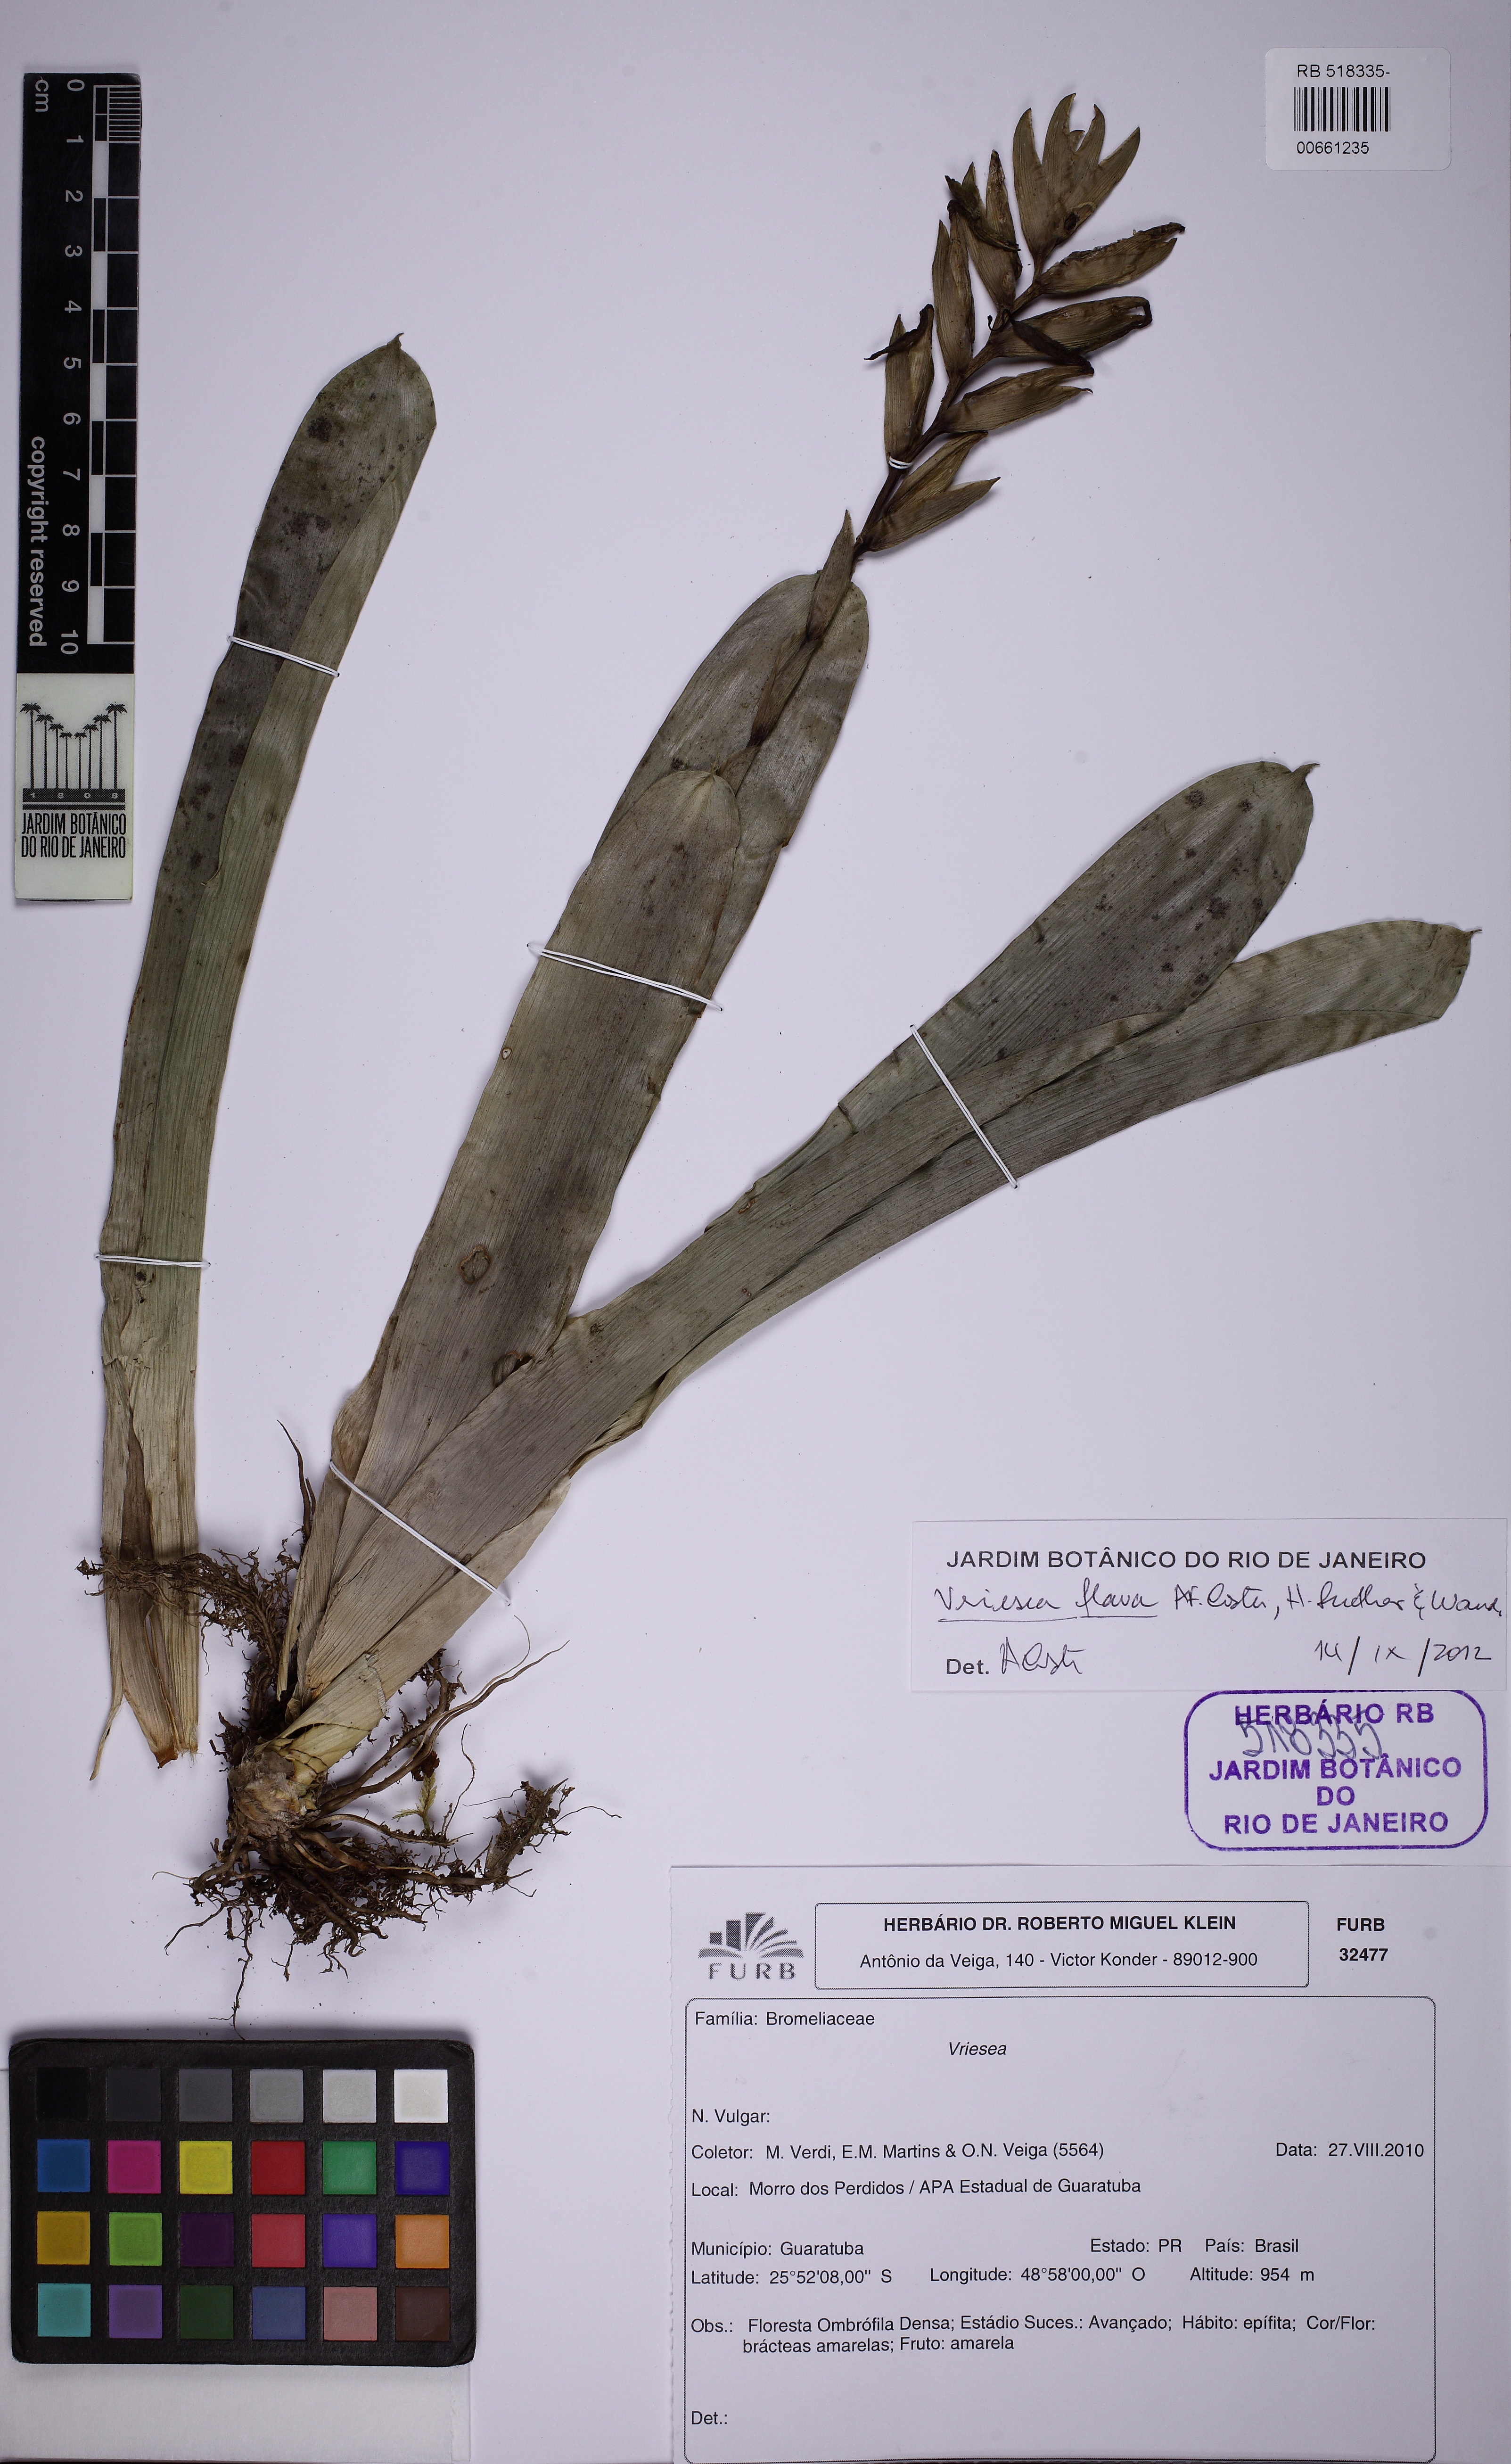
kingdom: Plantae
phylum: Tracheophyta
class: Liliopsida
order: Poales
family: Bromeliaceae
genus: Vriesea
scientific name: Vriesea flava
